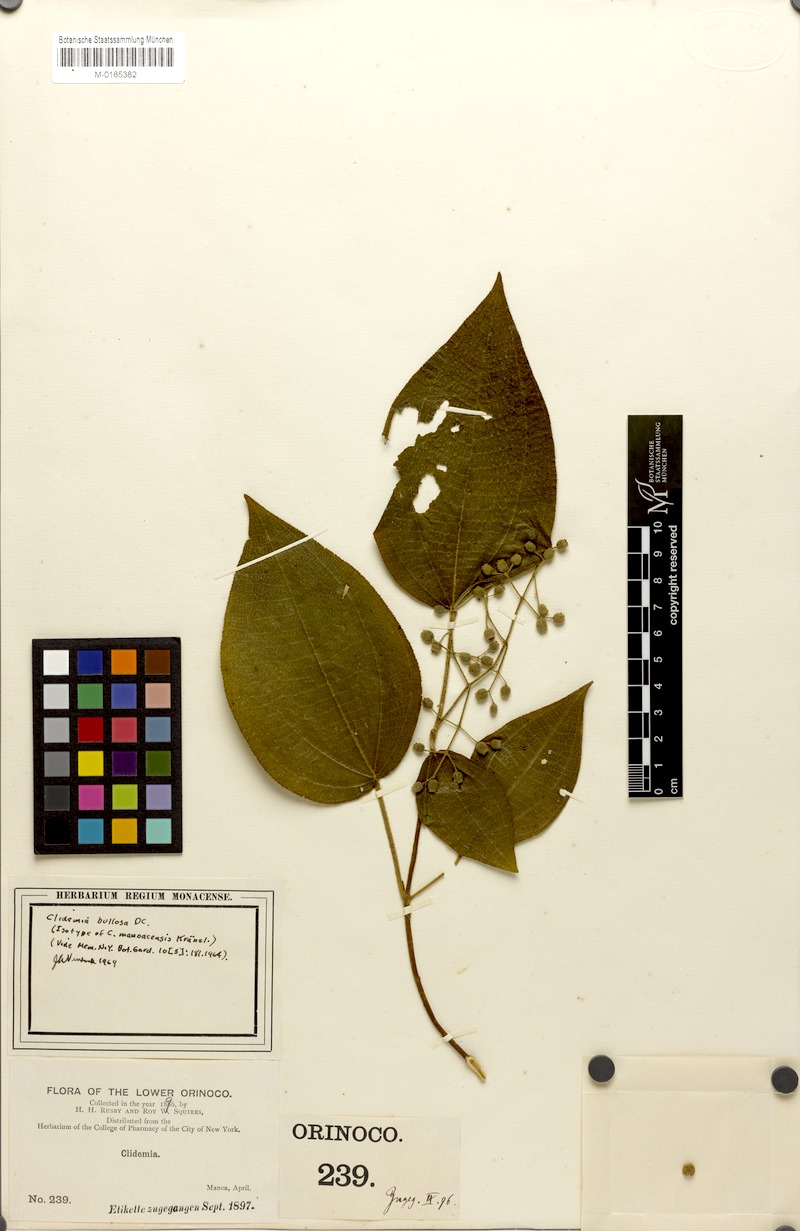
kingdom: Plantae
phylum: Tracheophyta
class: Magnoliopsida
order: Myrtales
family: Melastomataceae
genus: Miconia
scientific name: Miconia bullosa
